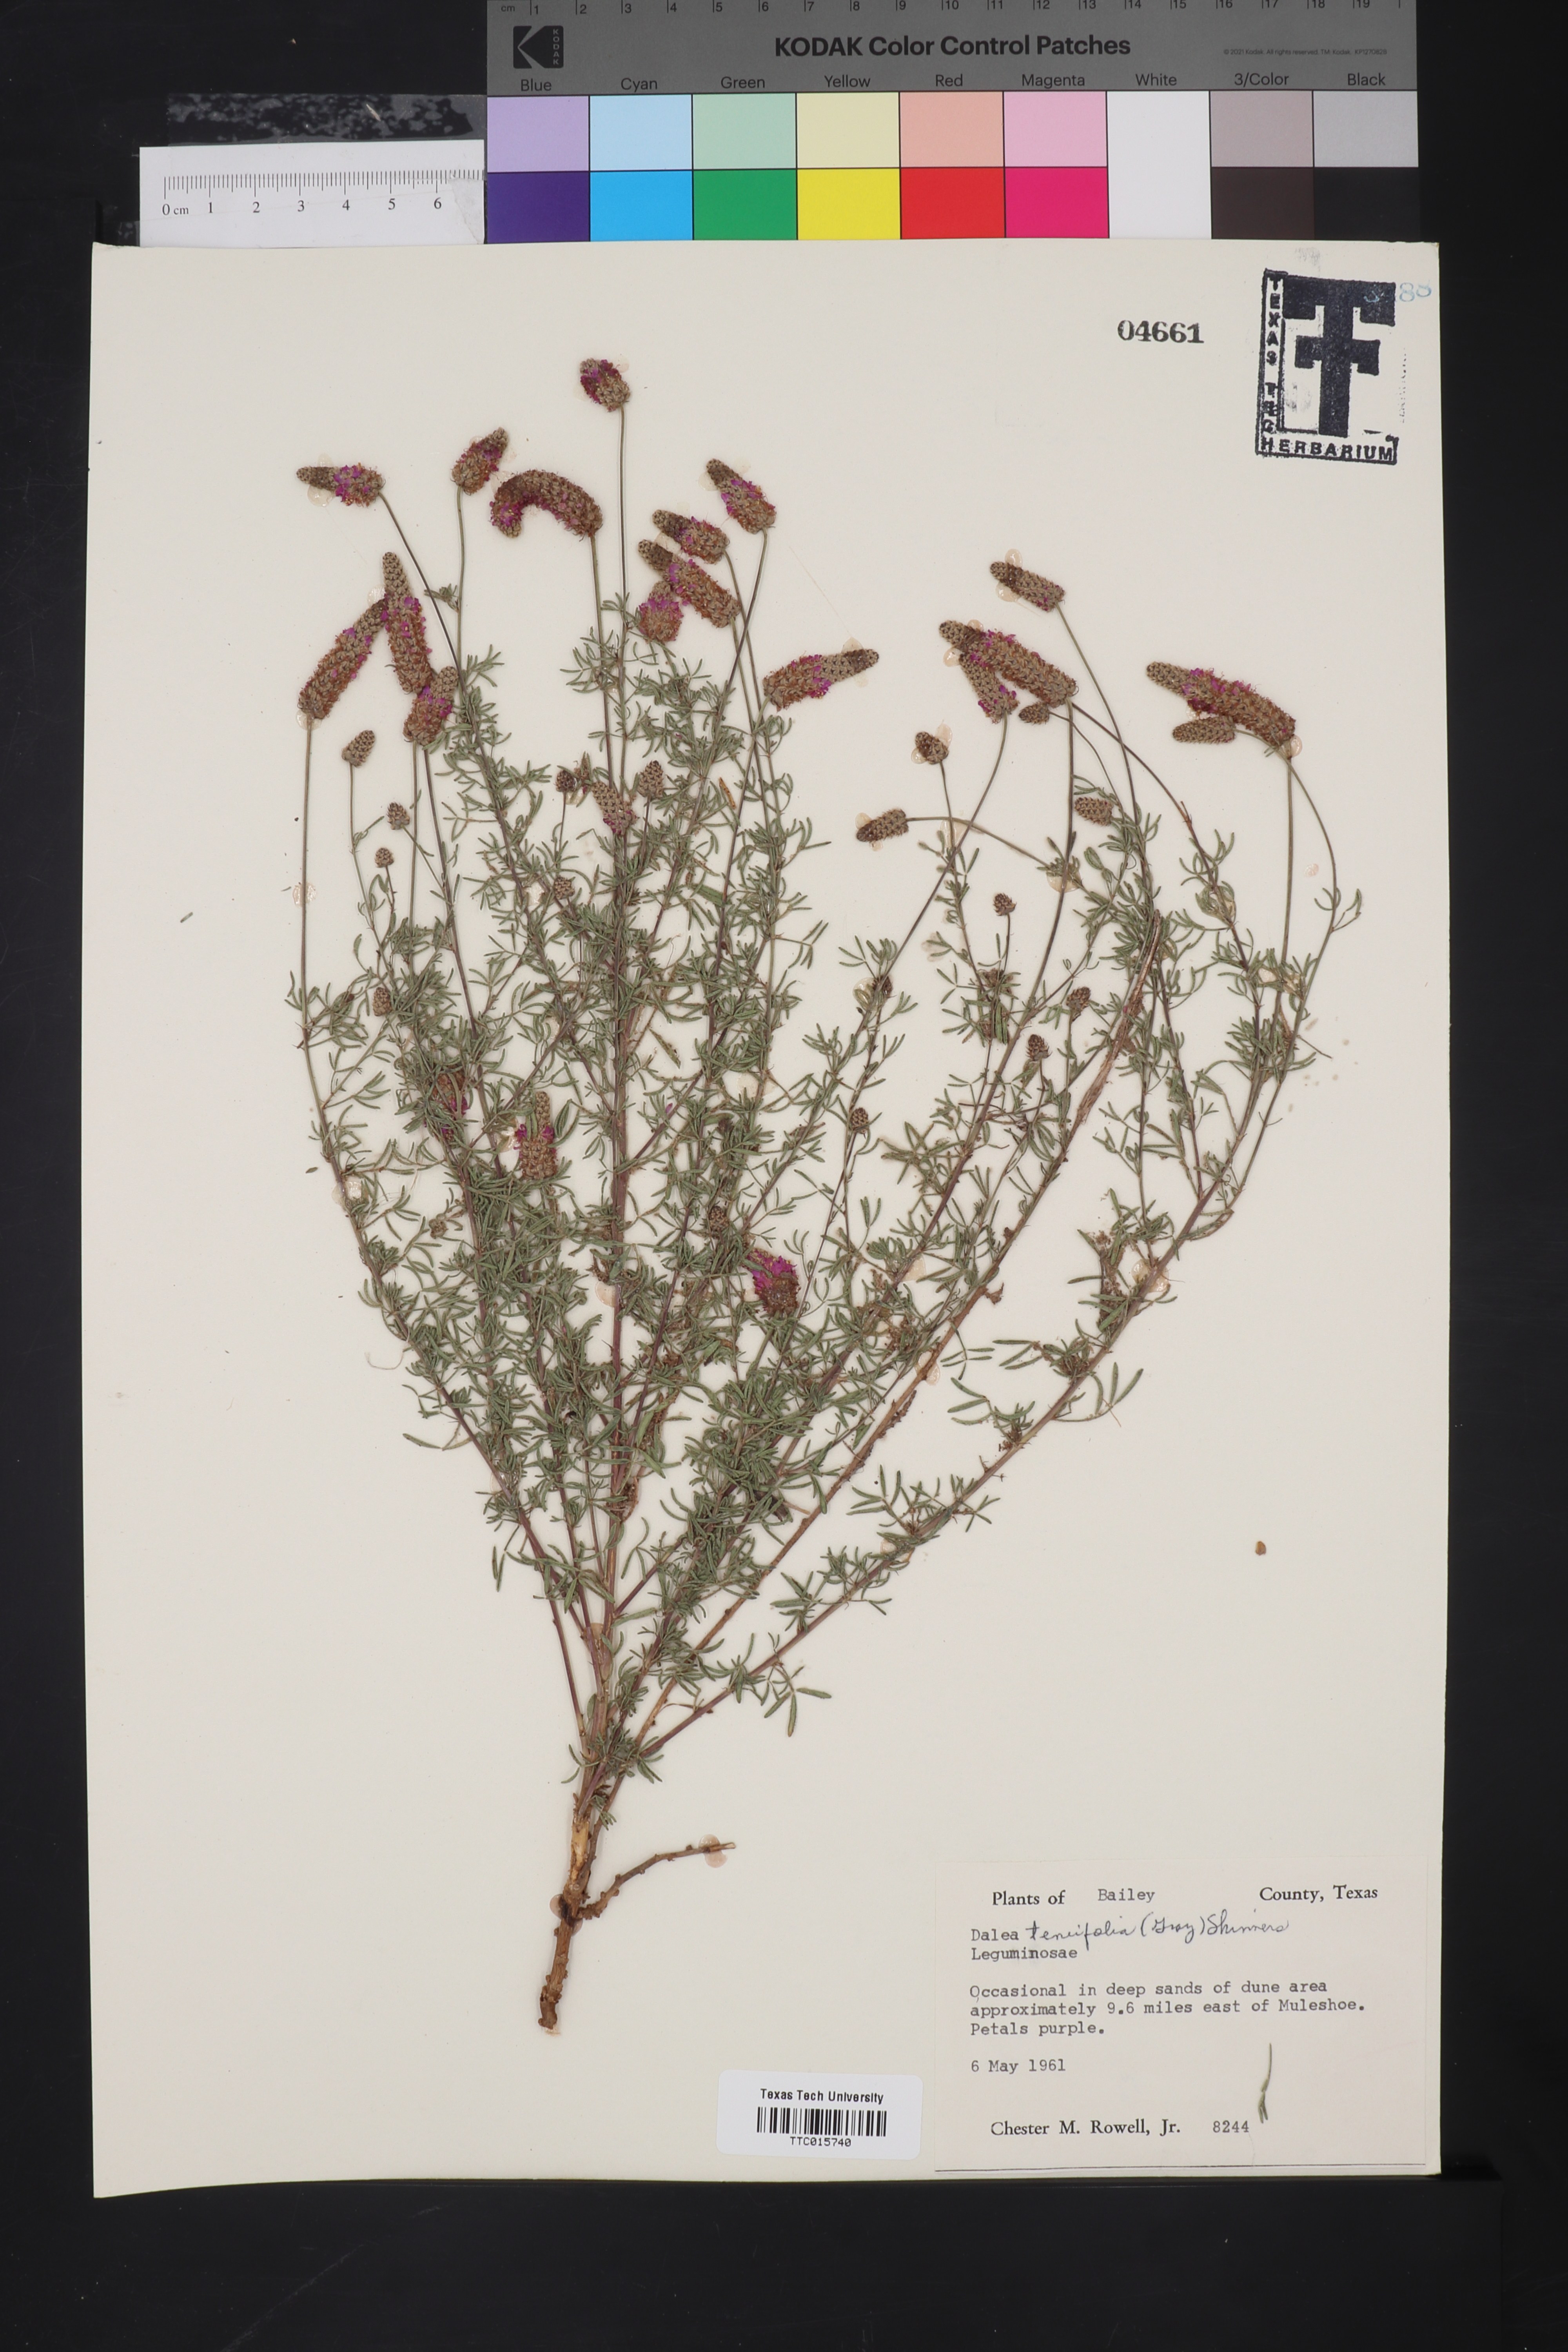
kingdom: Plantae
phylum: Tracheophyta
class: Magnoliopsida
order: Fabales
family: Fabaceae
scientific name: Fabaceae
